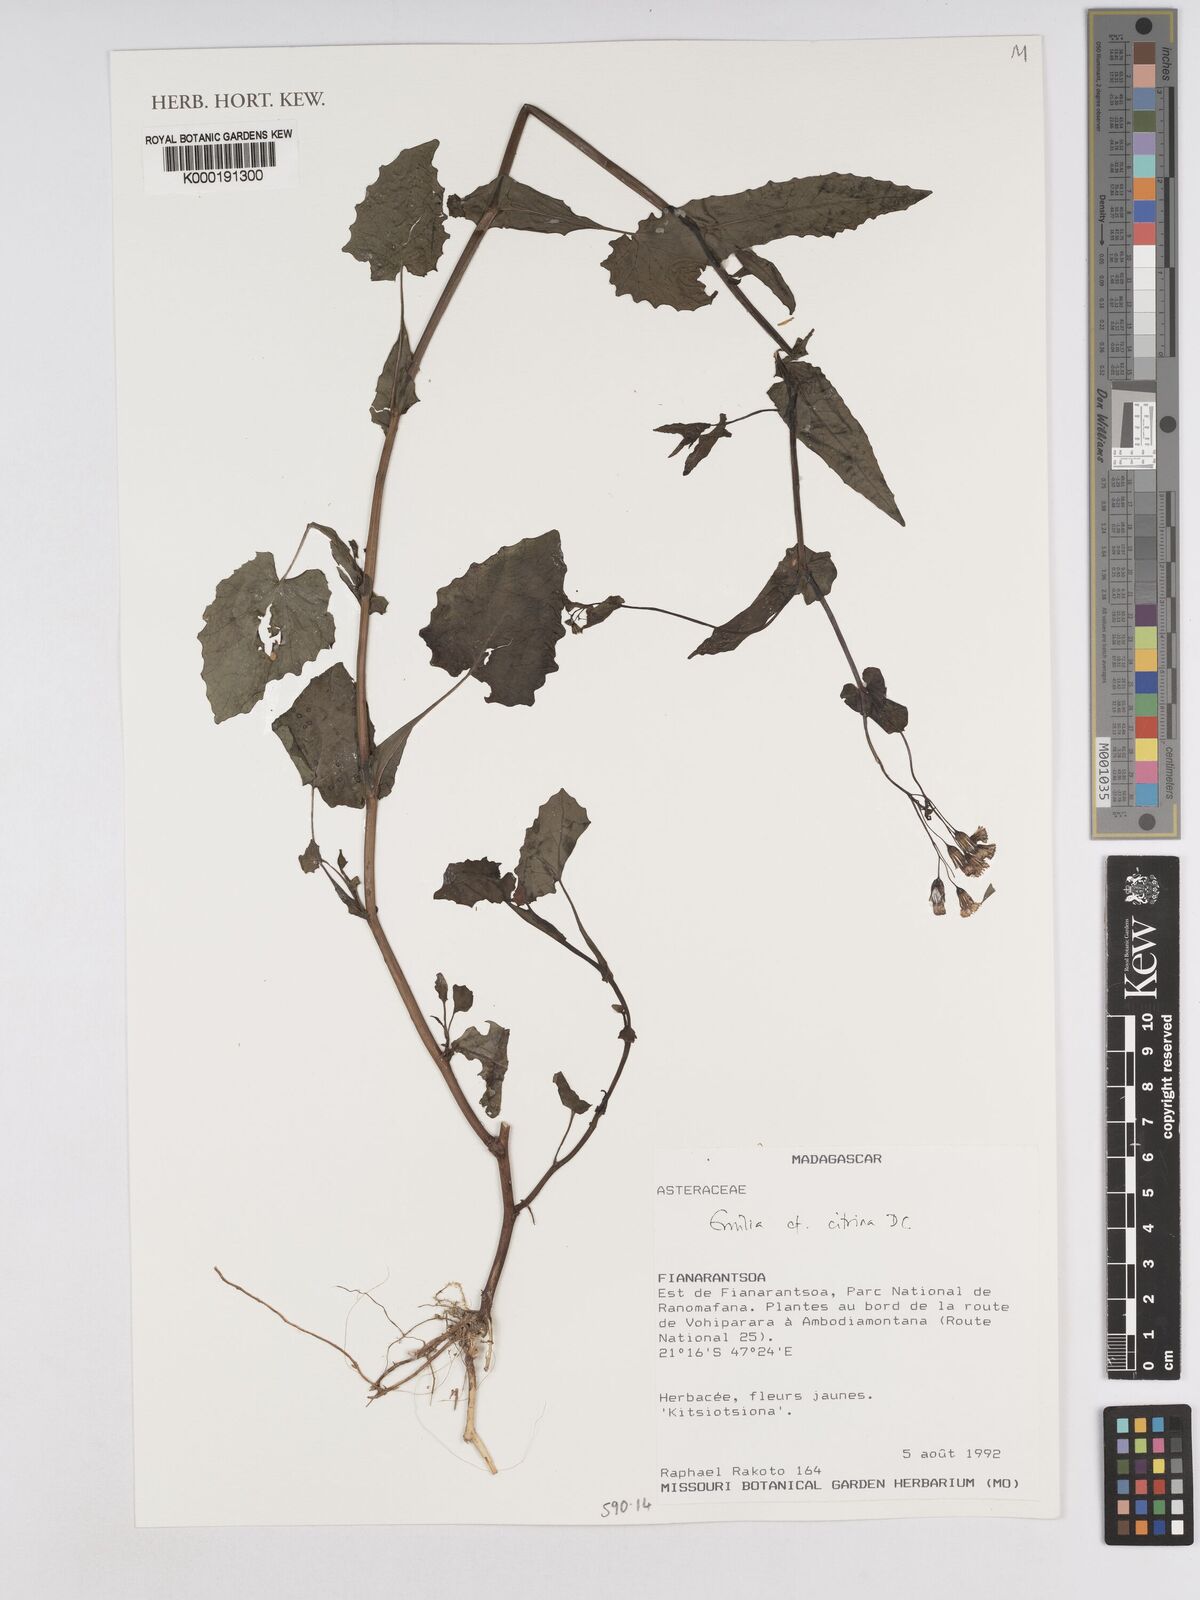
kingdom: Plantae
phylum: Tracheophyta
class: Magnoliopsida
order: Asterales
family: Asteraceae
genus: Emilia
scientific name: Emilia citrina
